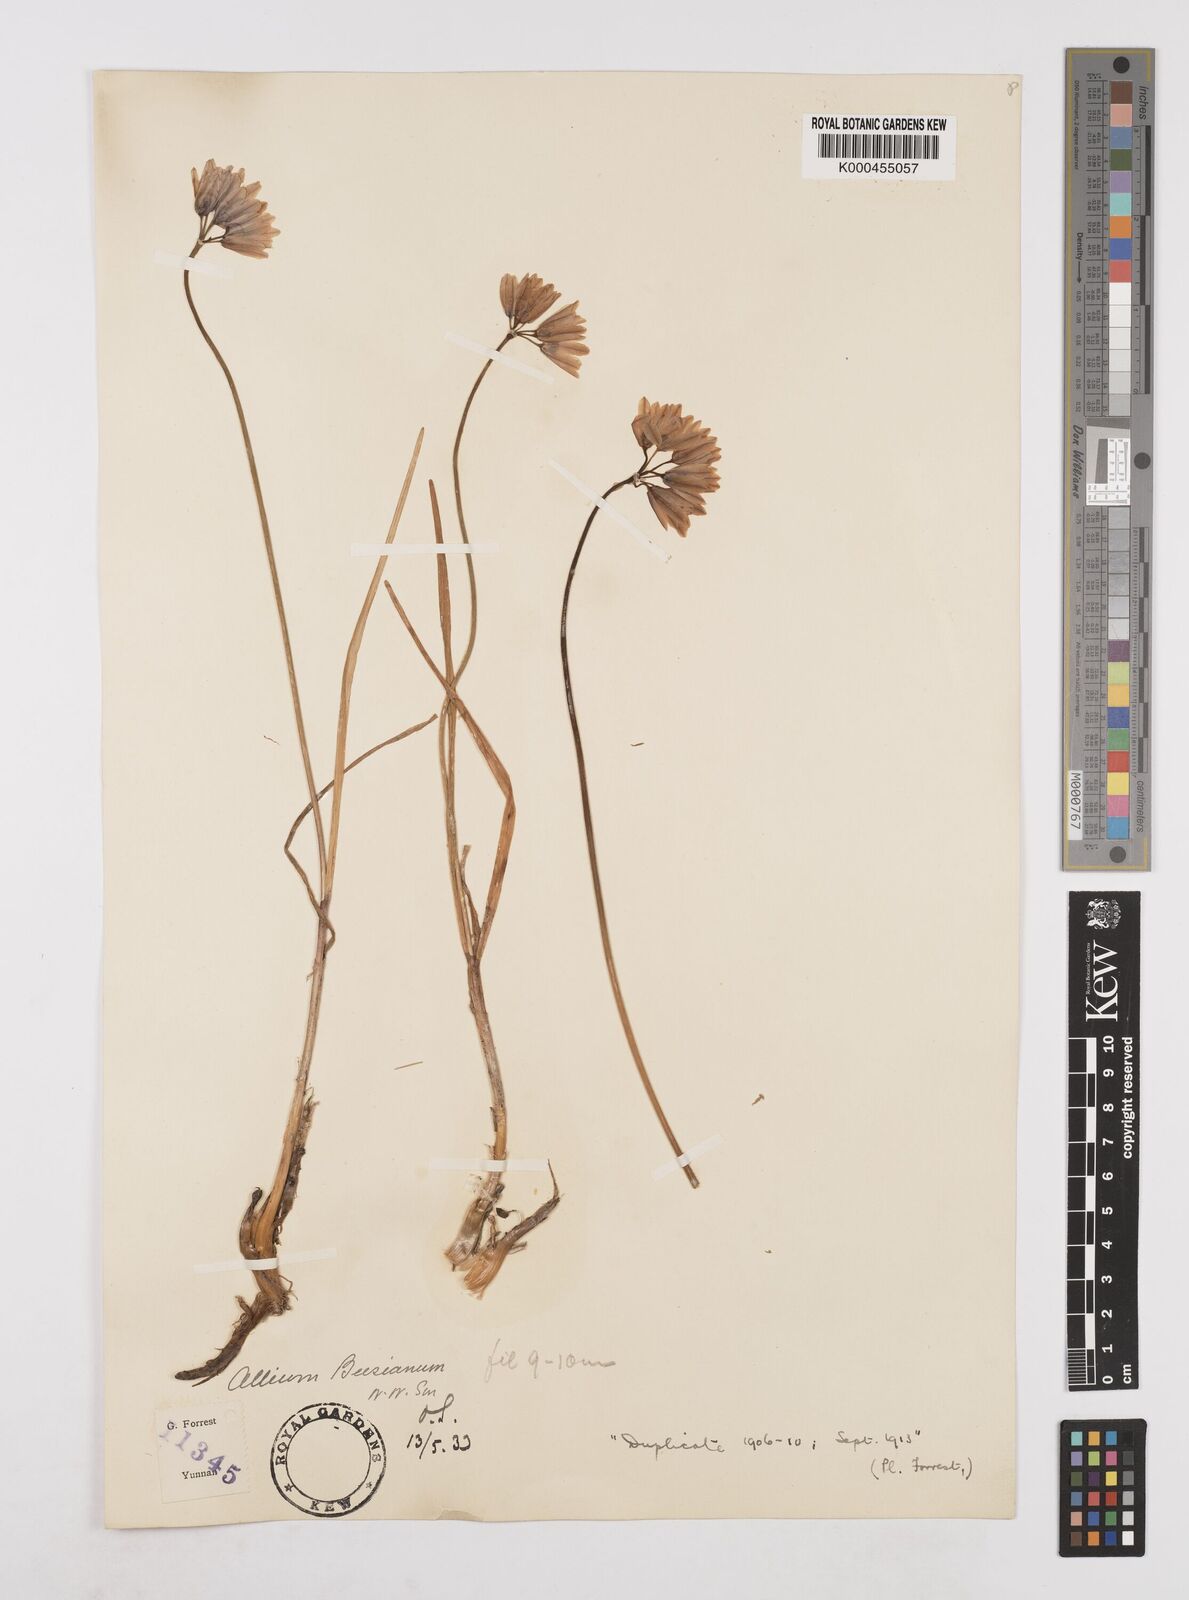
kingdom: Plantae
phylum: Tracheophyta
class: Liliopsida
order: Asparagales
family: Amaryllidaceae
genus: Allium
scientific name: Allium beesianum
